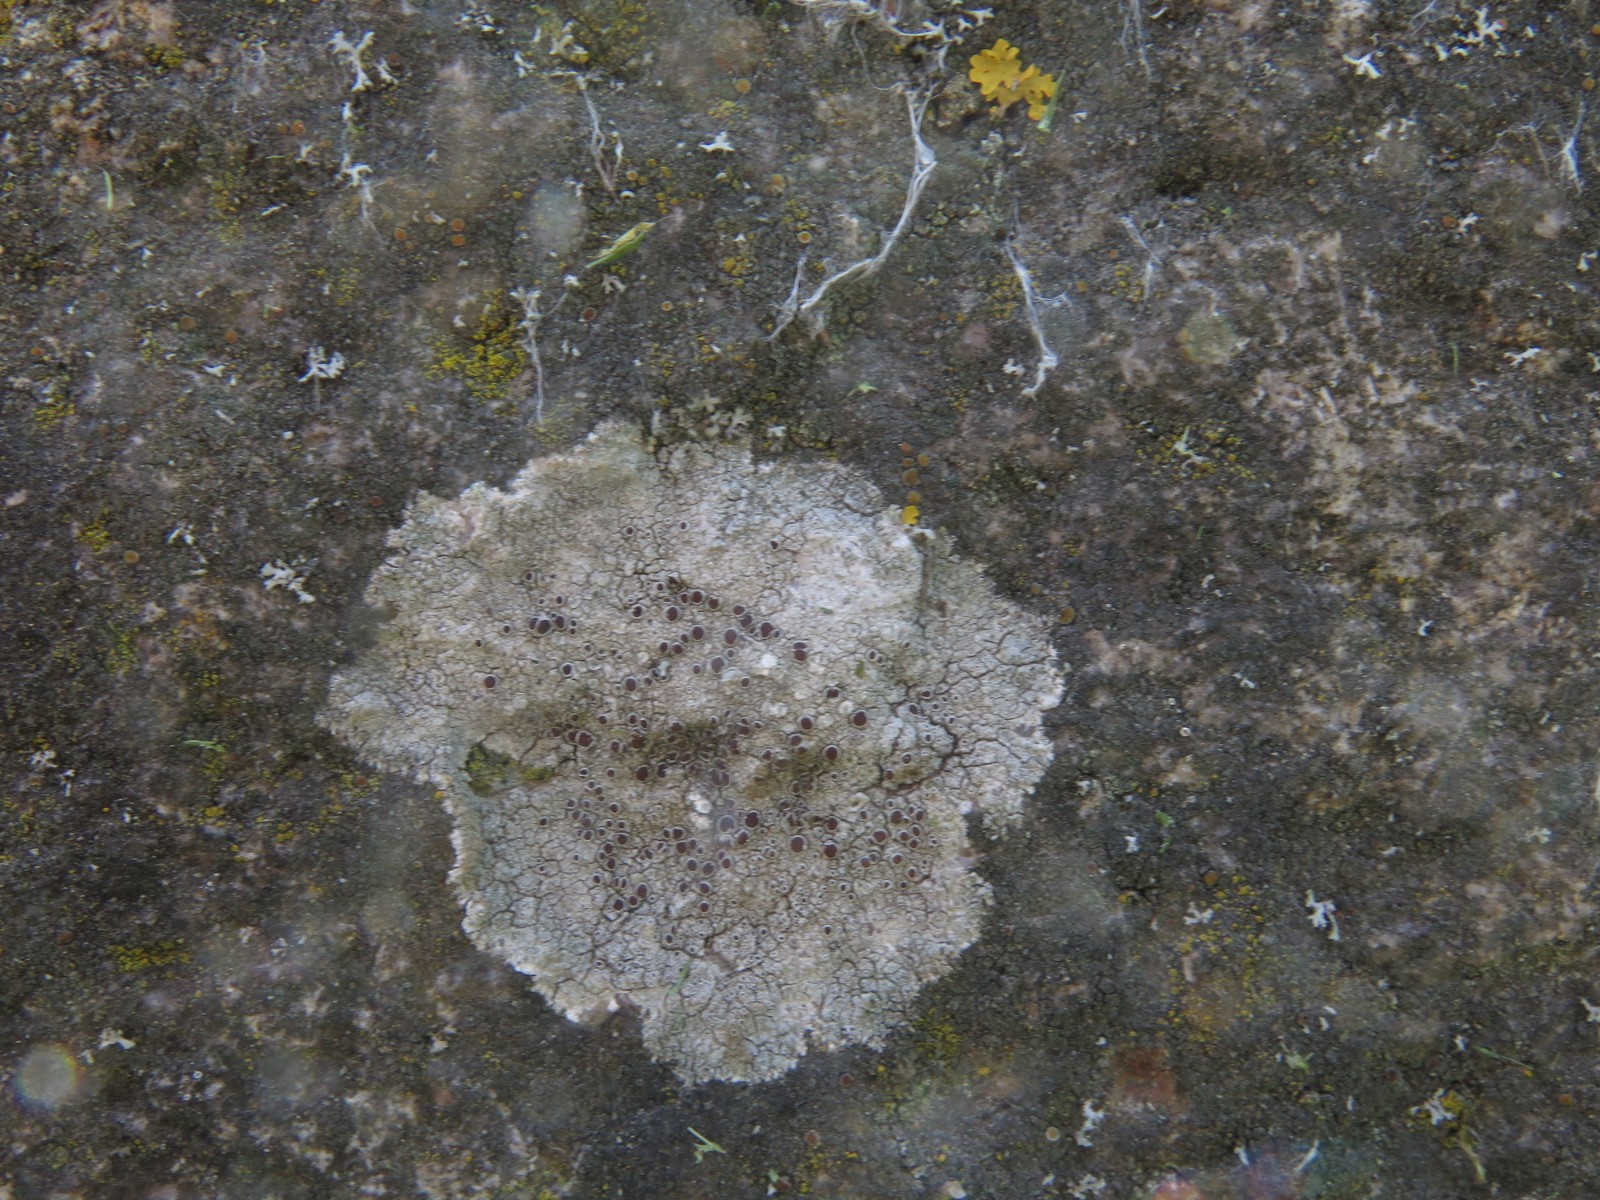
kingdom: Fungi
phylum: Ascomycota
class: Lecanoromycetes
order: Lecanorales
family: Lecanoraceae
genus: Lecanora
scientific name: Lecanora campestris
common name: mur-kantskivelav
